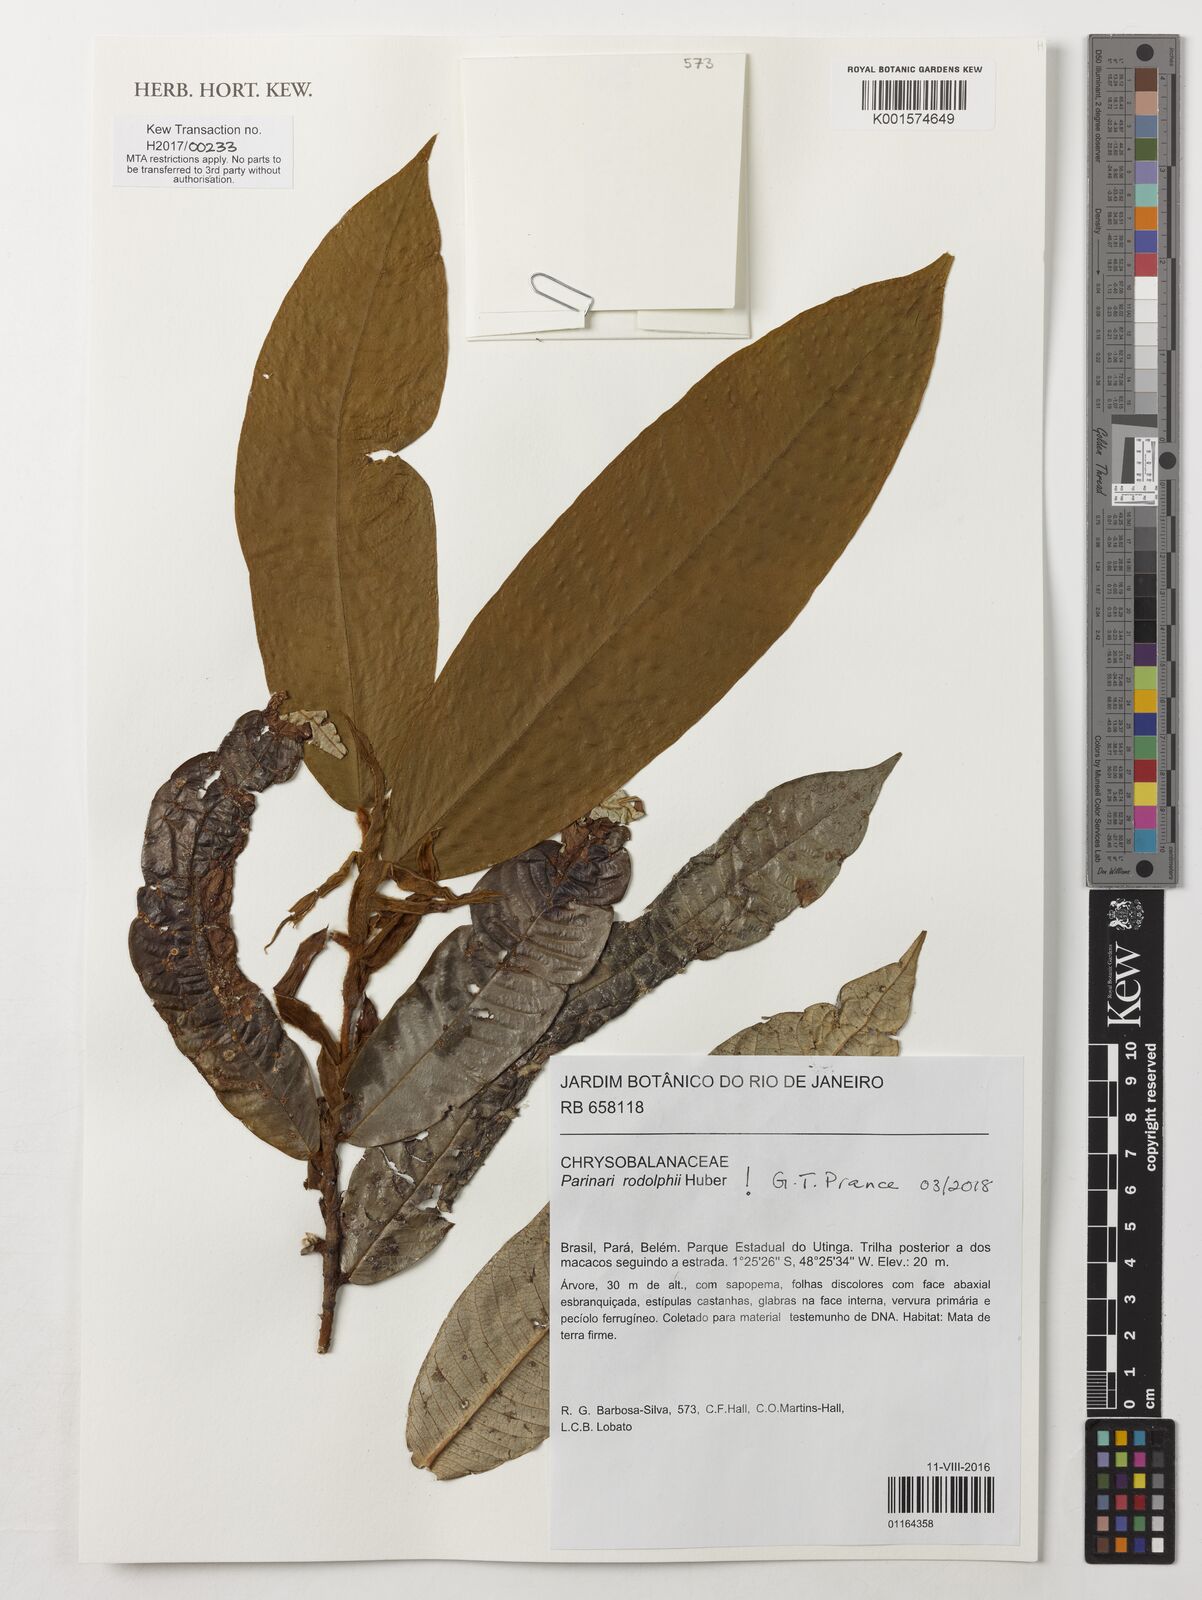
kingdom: Plantae
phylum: Tracheophyta
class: Magnoliopsida
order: Malpighiales
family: Chrysobalanaceae
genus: Parinari
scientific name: Parinari rodolphii
